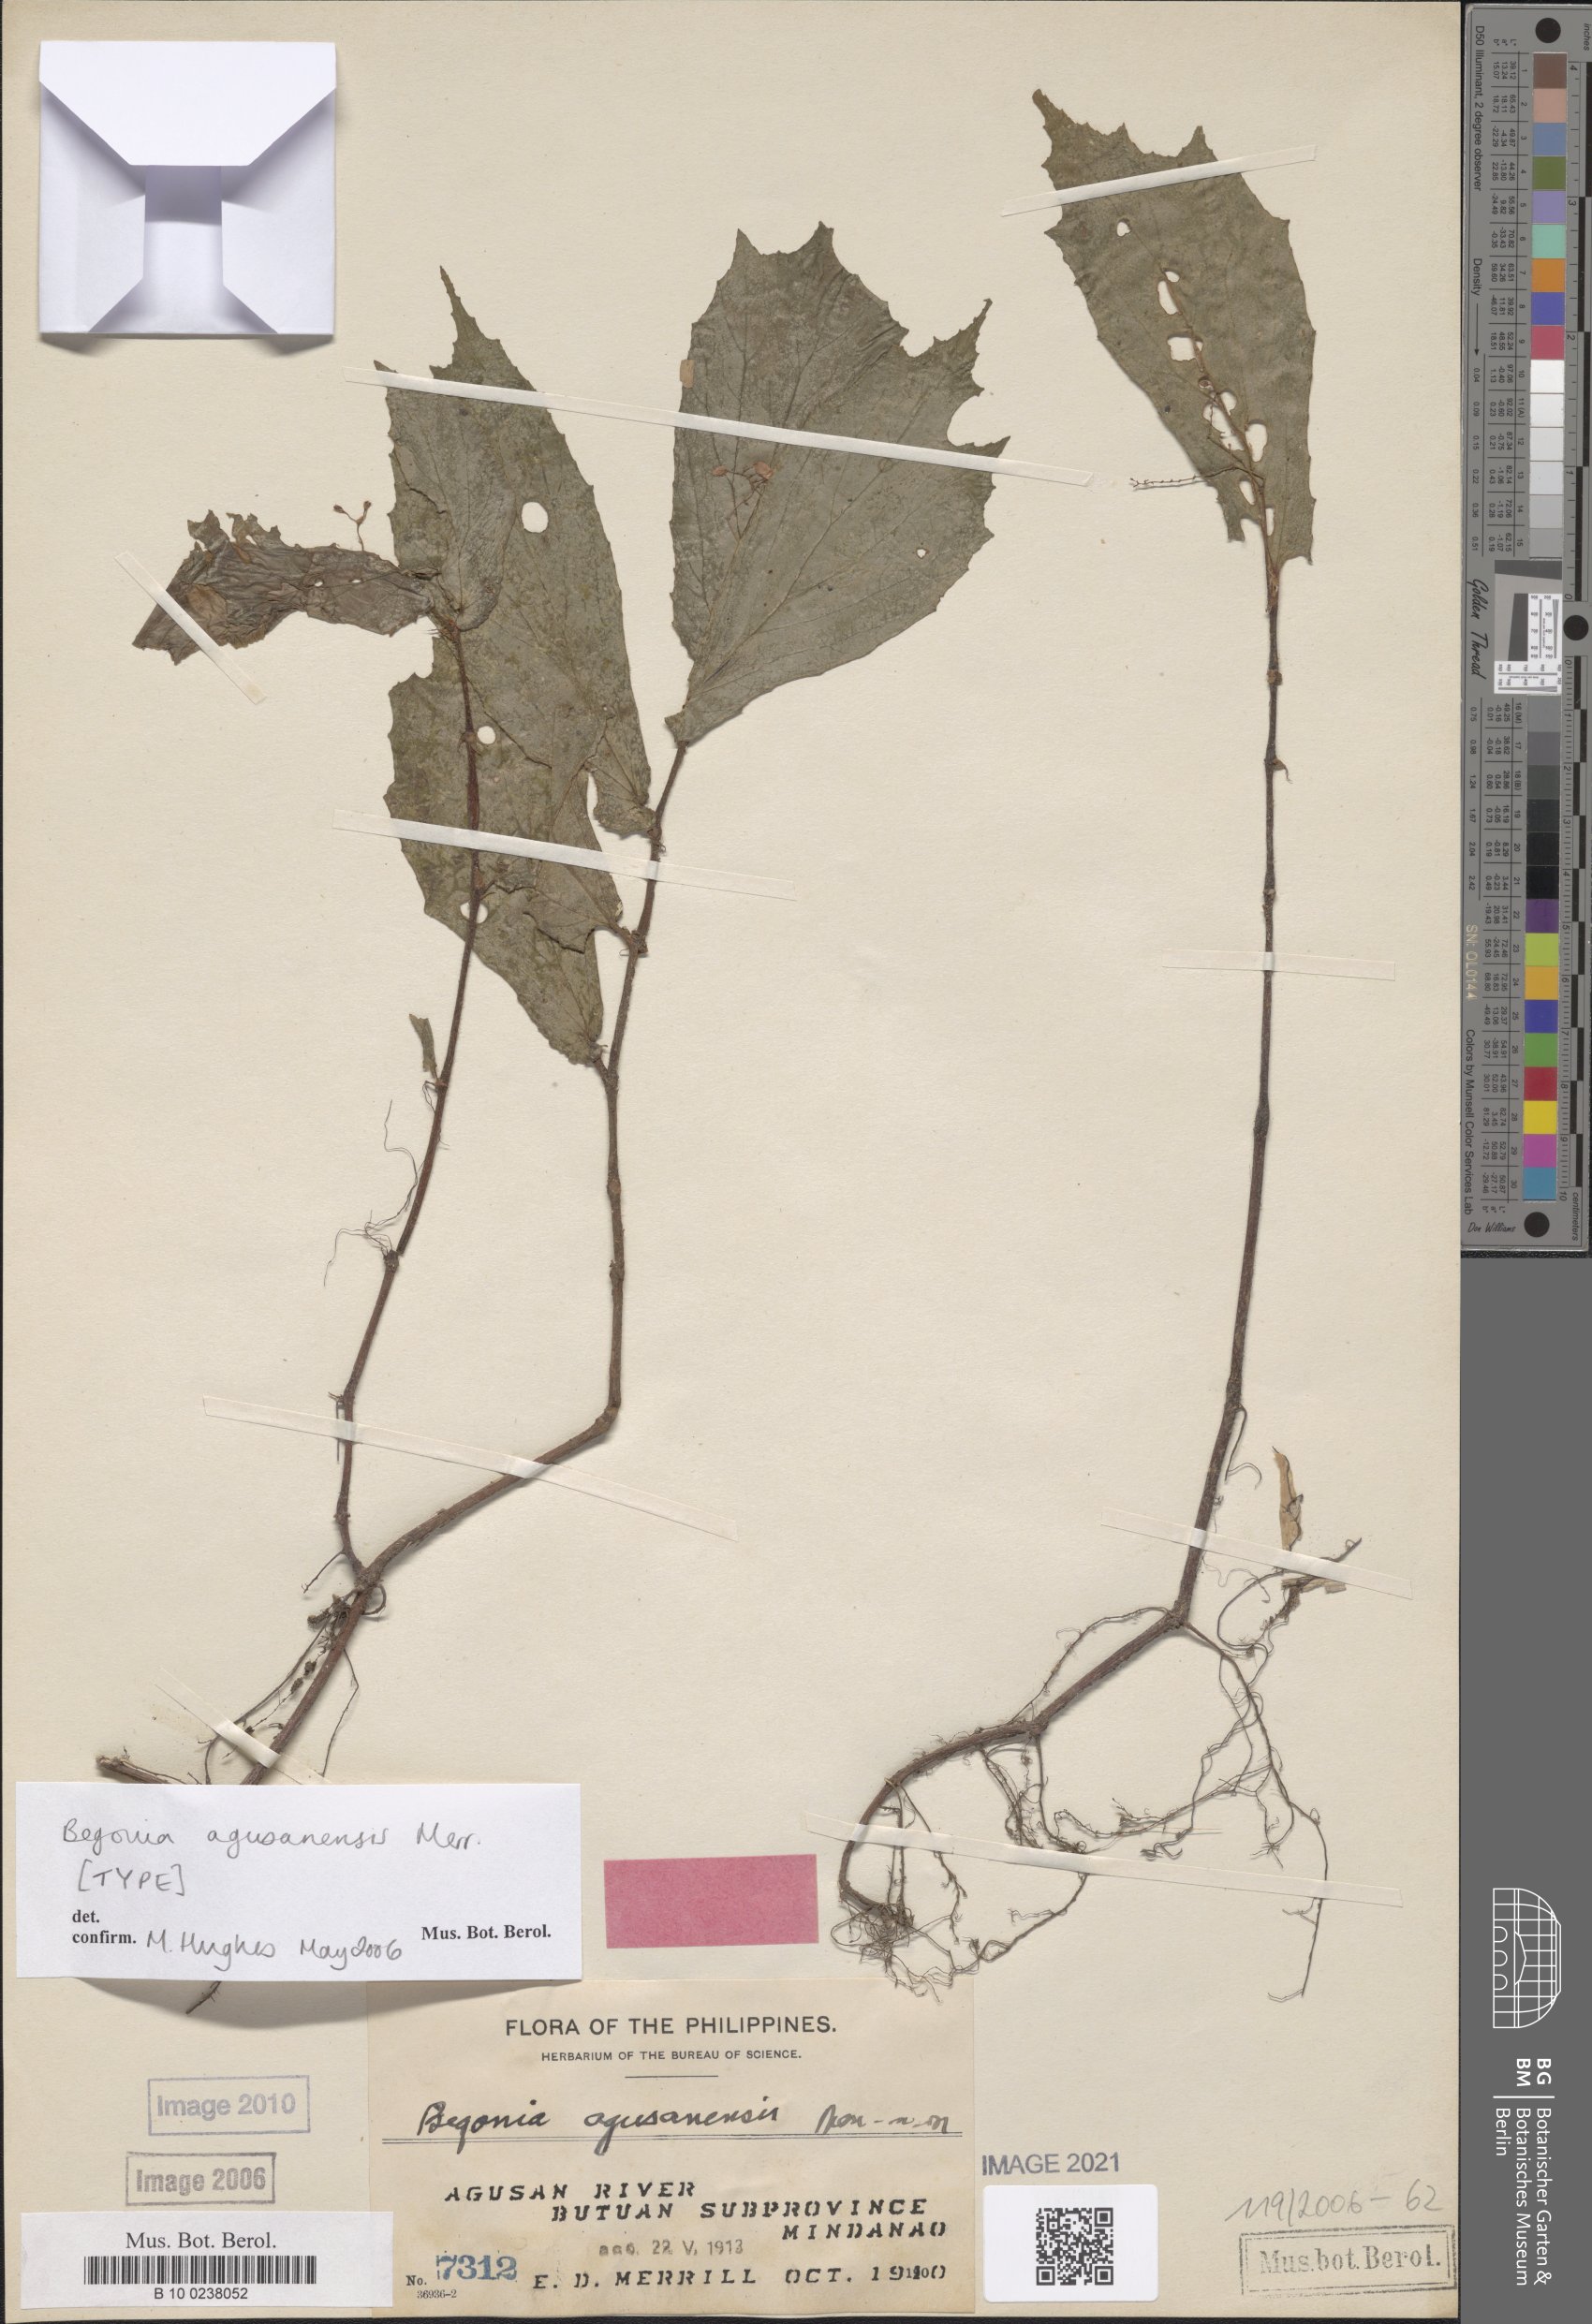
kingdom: Plantae
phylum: Tracheophyta
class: Magnoliopsida
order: Cucurbitales
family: Begoniaceae
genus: Begonia
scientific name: Begonia agusanensis
